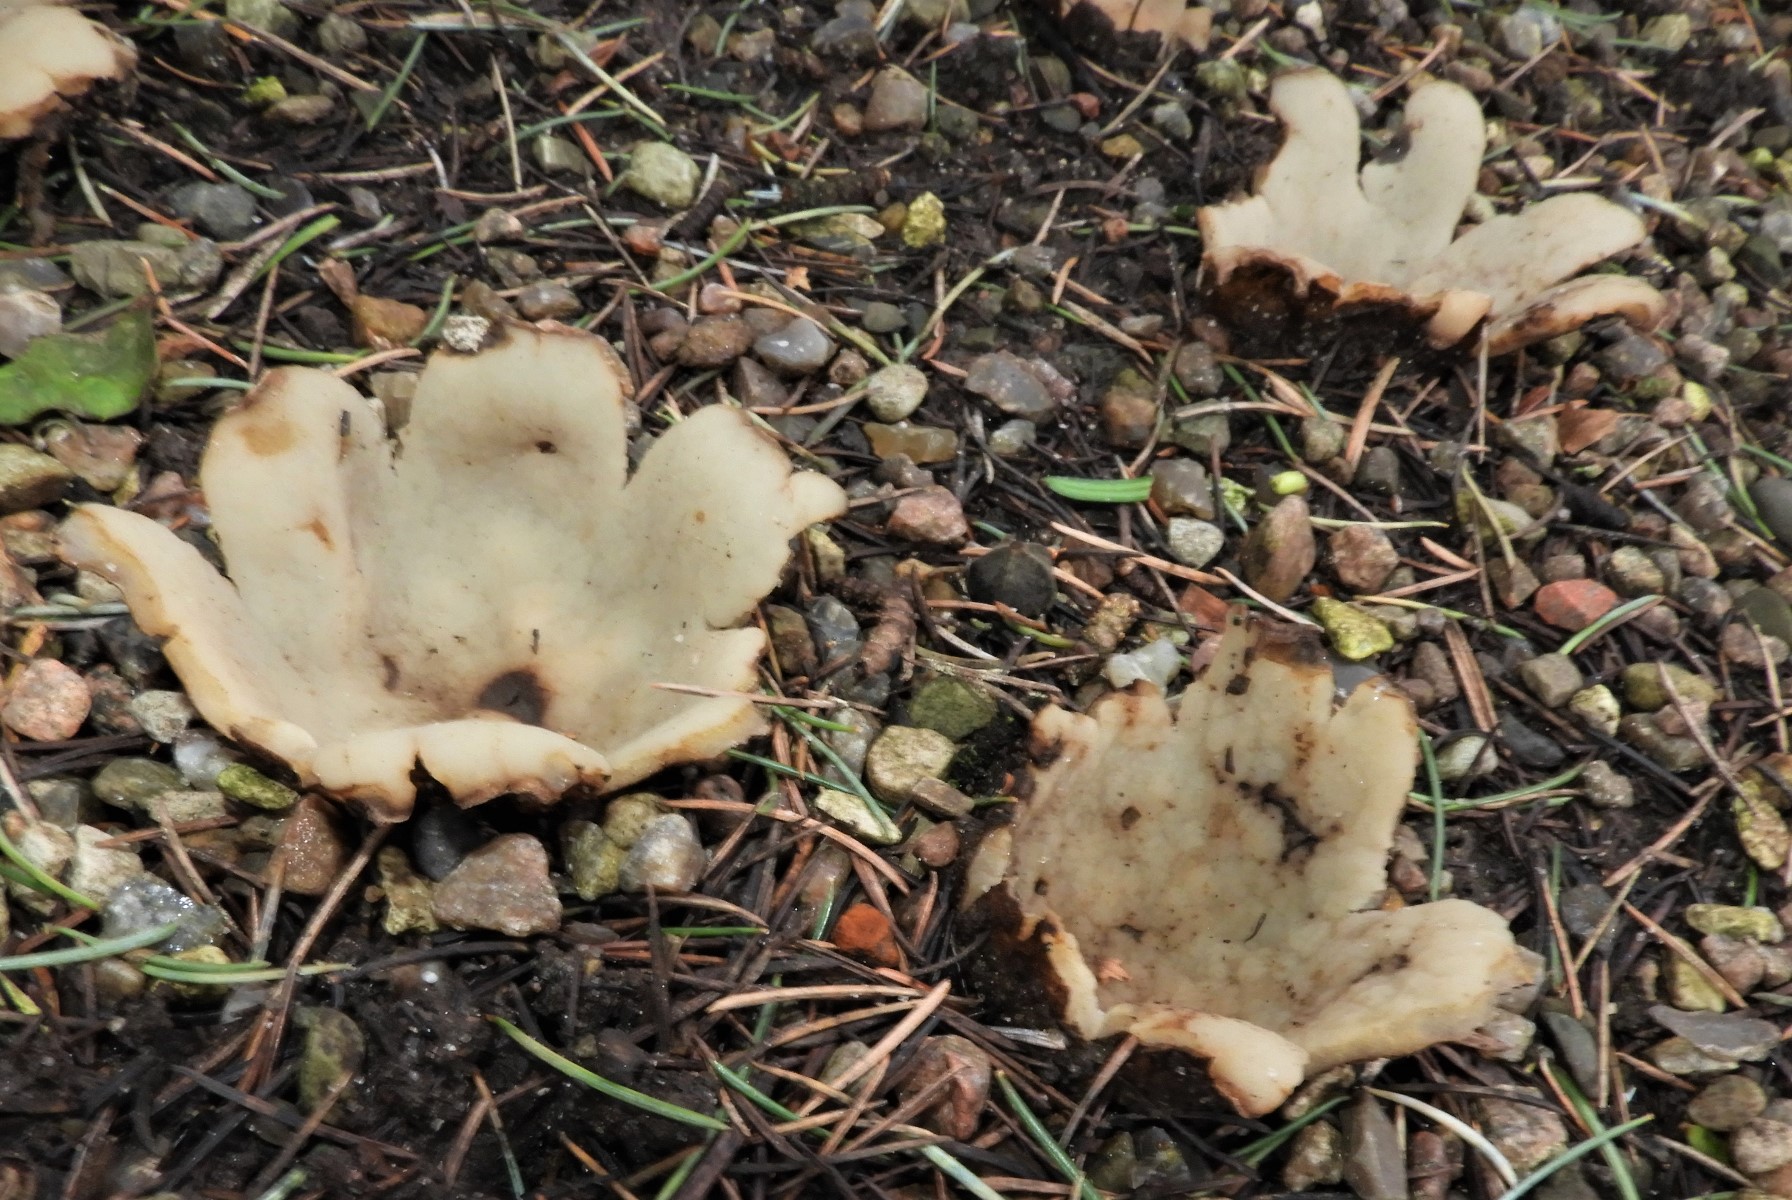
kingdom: Fungi
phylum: Ascomycota
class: Pezizomycetes
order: Pezizales
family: Pyronemataceae
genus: Geopora
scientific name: Geopora sumneriana
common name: vår-jordbæger
